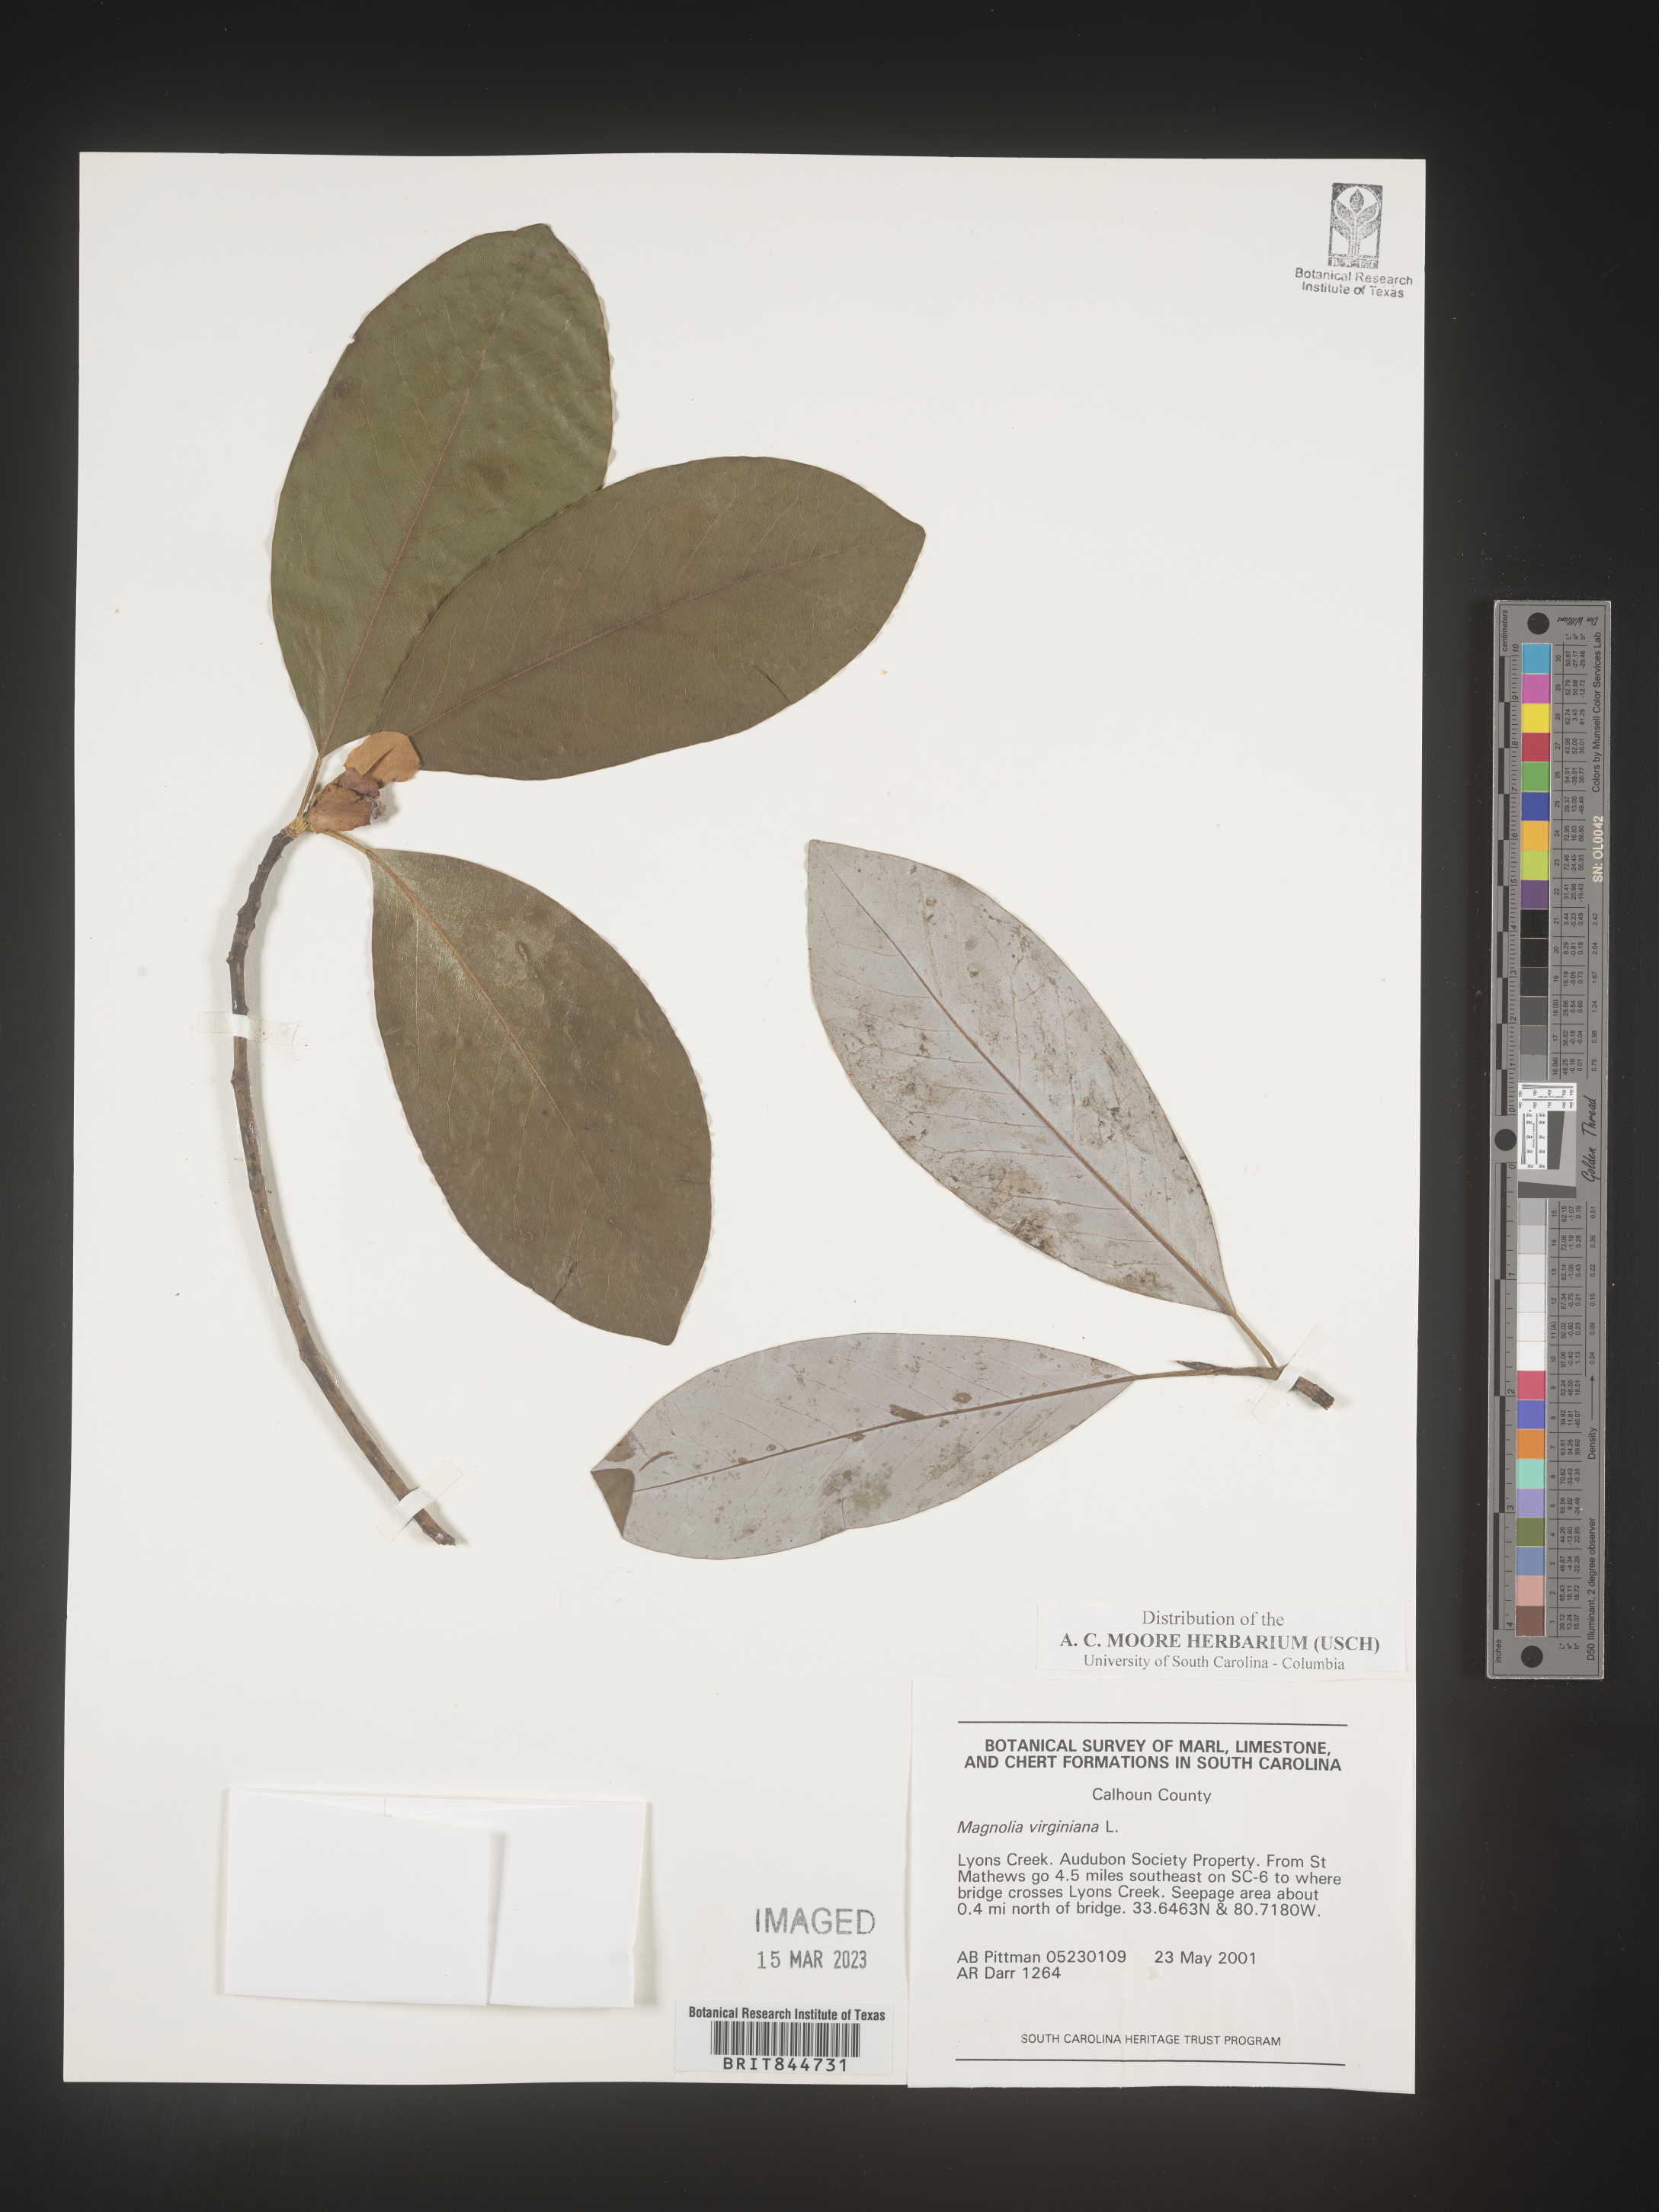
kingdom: Plantae
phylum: Tracheophyta
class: Magnoliopsida
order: Magnoliales
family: Magnoliaceae
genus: Magnolia
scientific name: Magnolia virginiana
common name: Swamp bay
